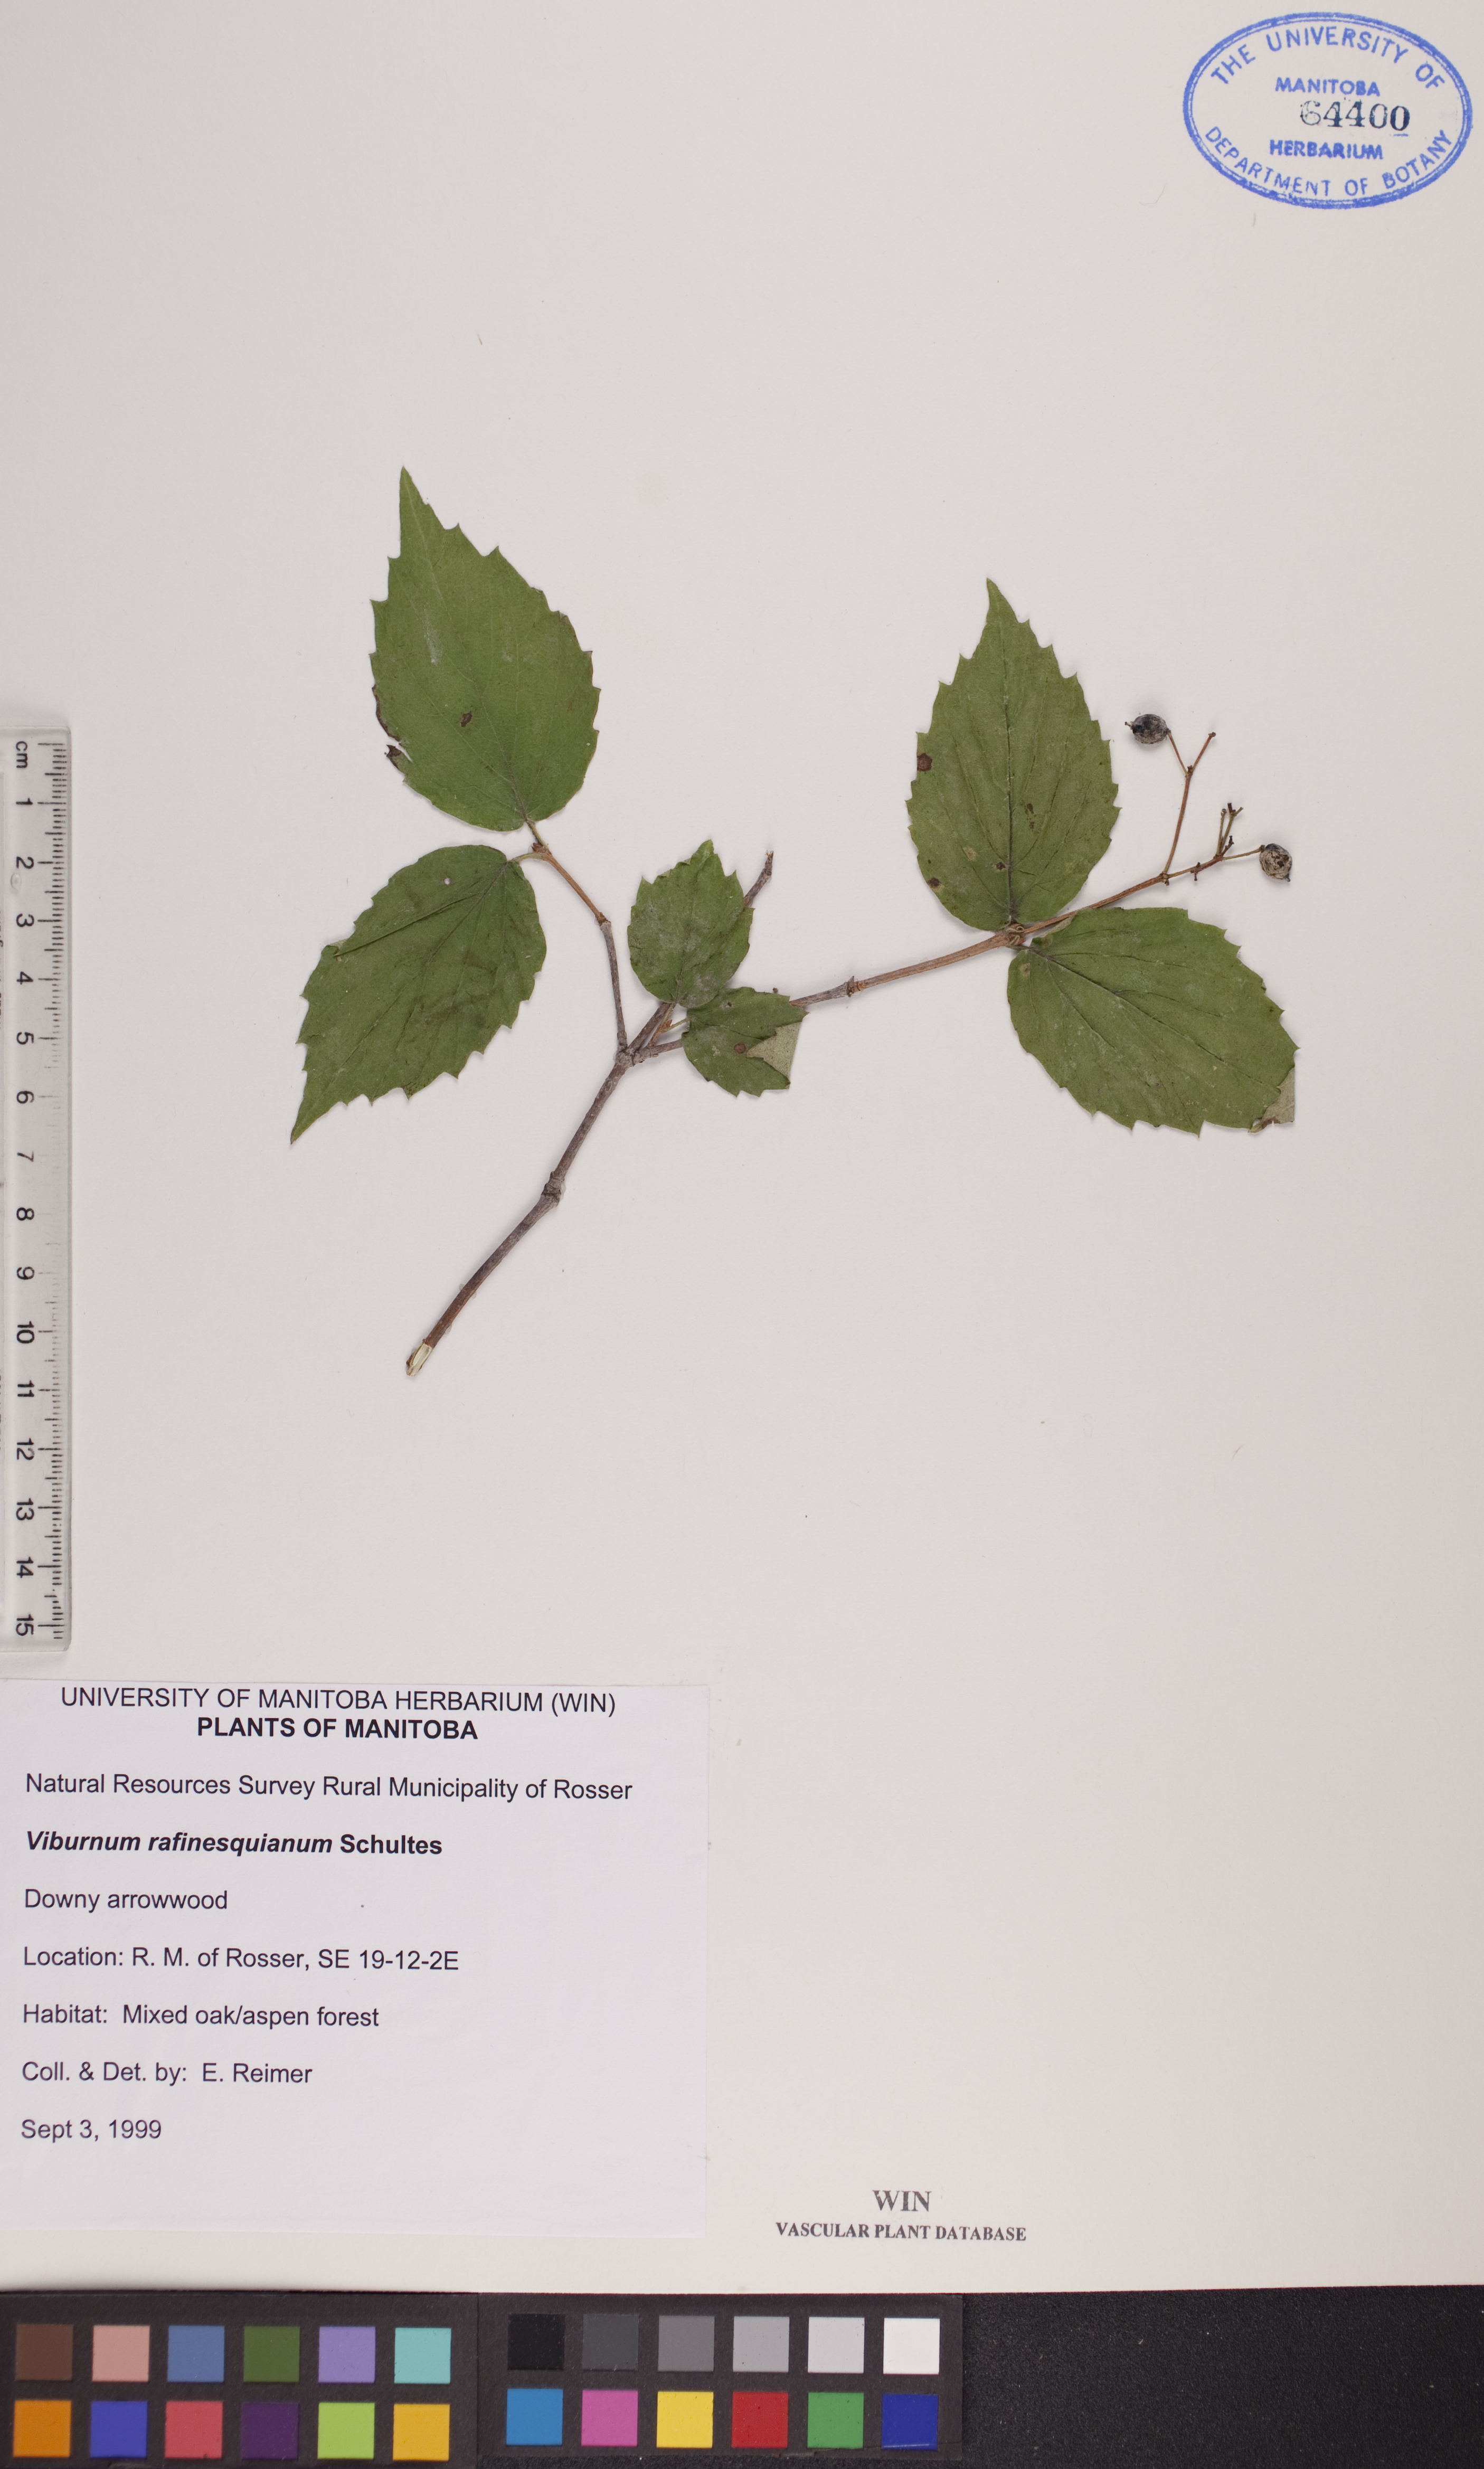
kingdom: Plantae
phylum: Tracheophyta
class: Magnoliopsida
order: Dipsacales
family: Viburnaceae
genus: Viburnum
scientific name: Viburnum rafinesquianum
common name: Downy arrow-wood
